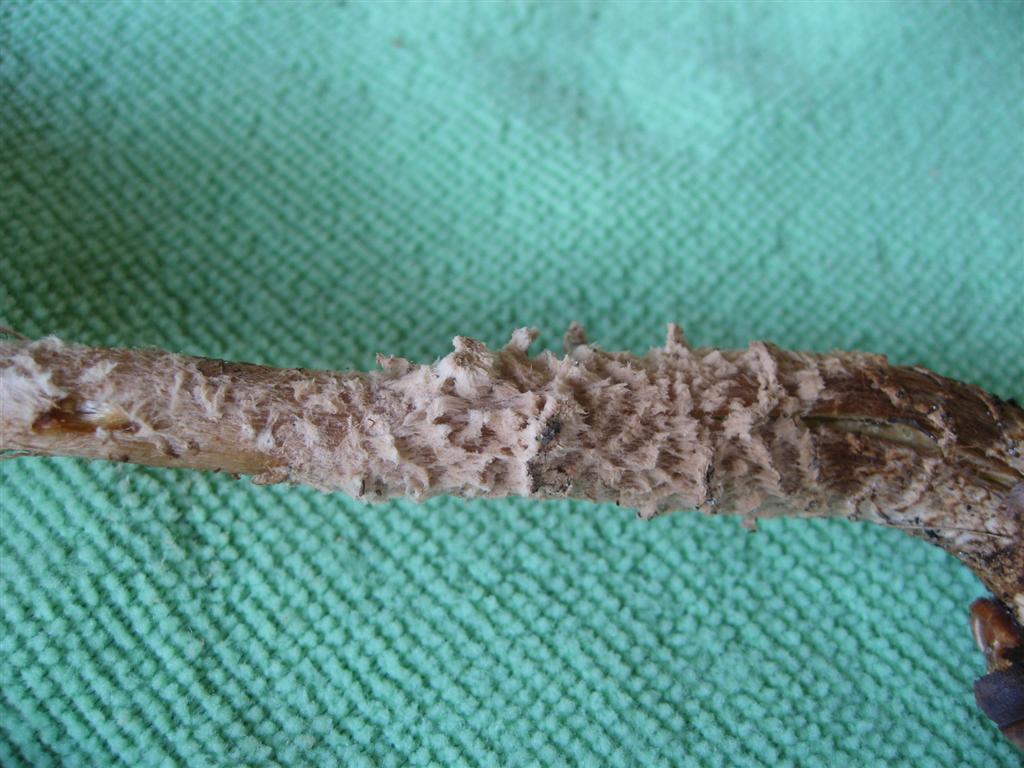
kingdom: Fungi
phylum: Basidiomycota
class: Agaricomycetes
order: Agaricales
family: Agaricaceae
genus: Lepiota
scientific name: Lepiota clypeolaria
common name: flosset parasolhat
